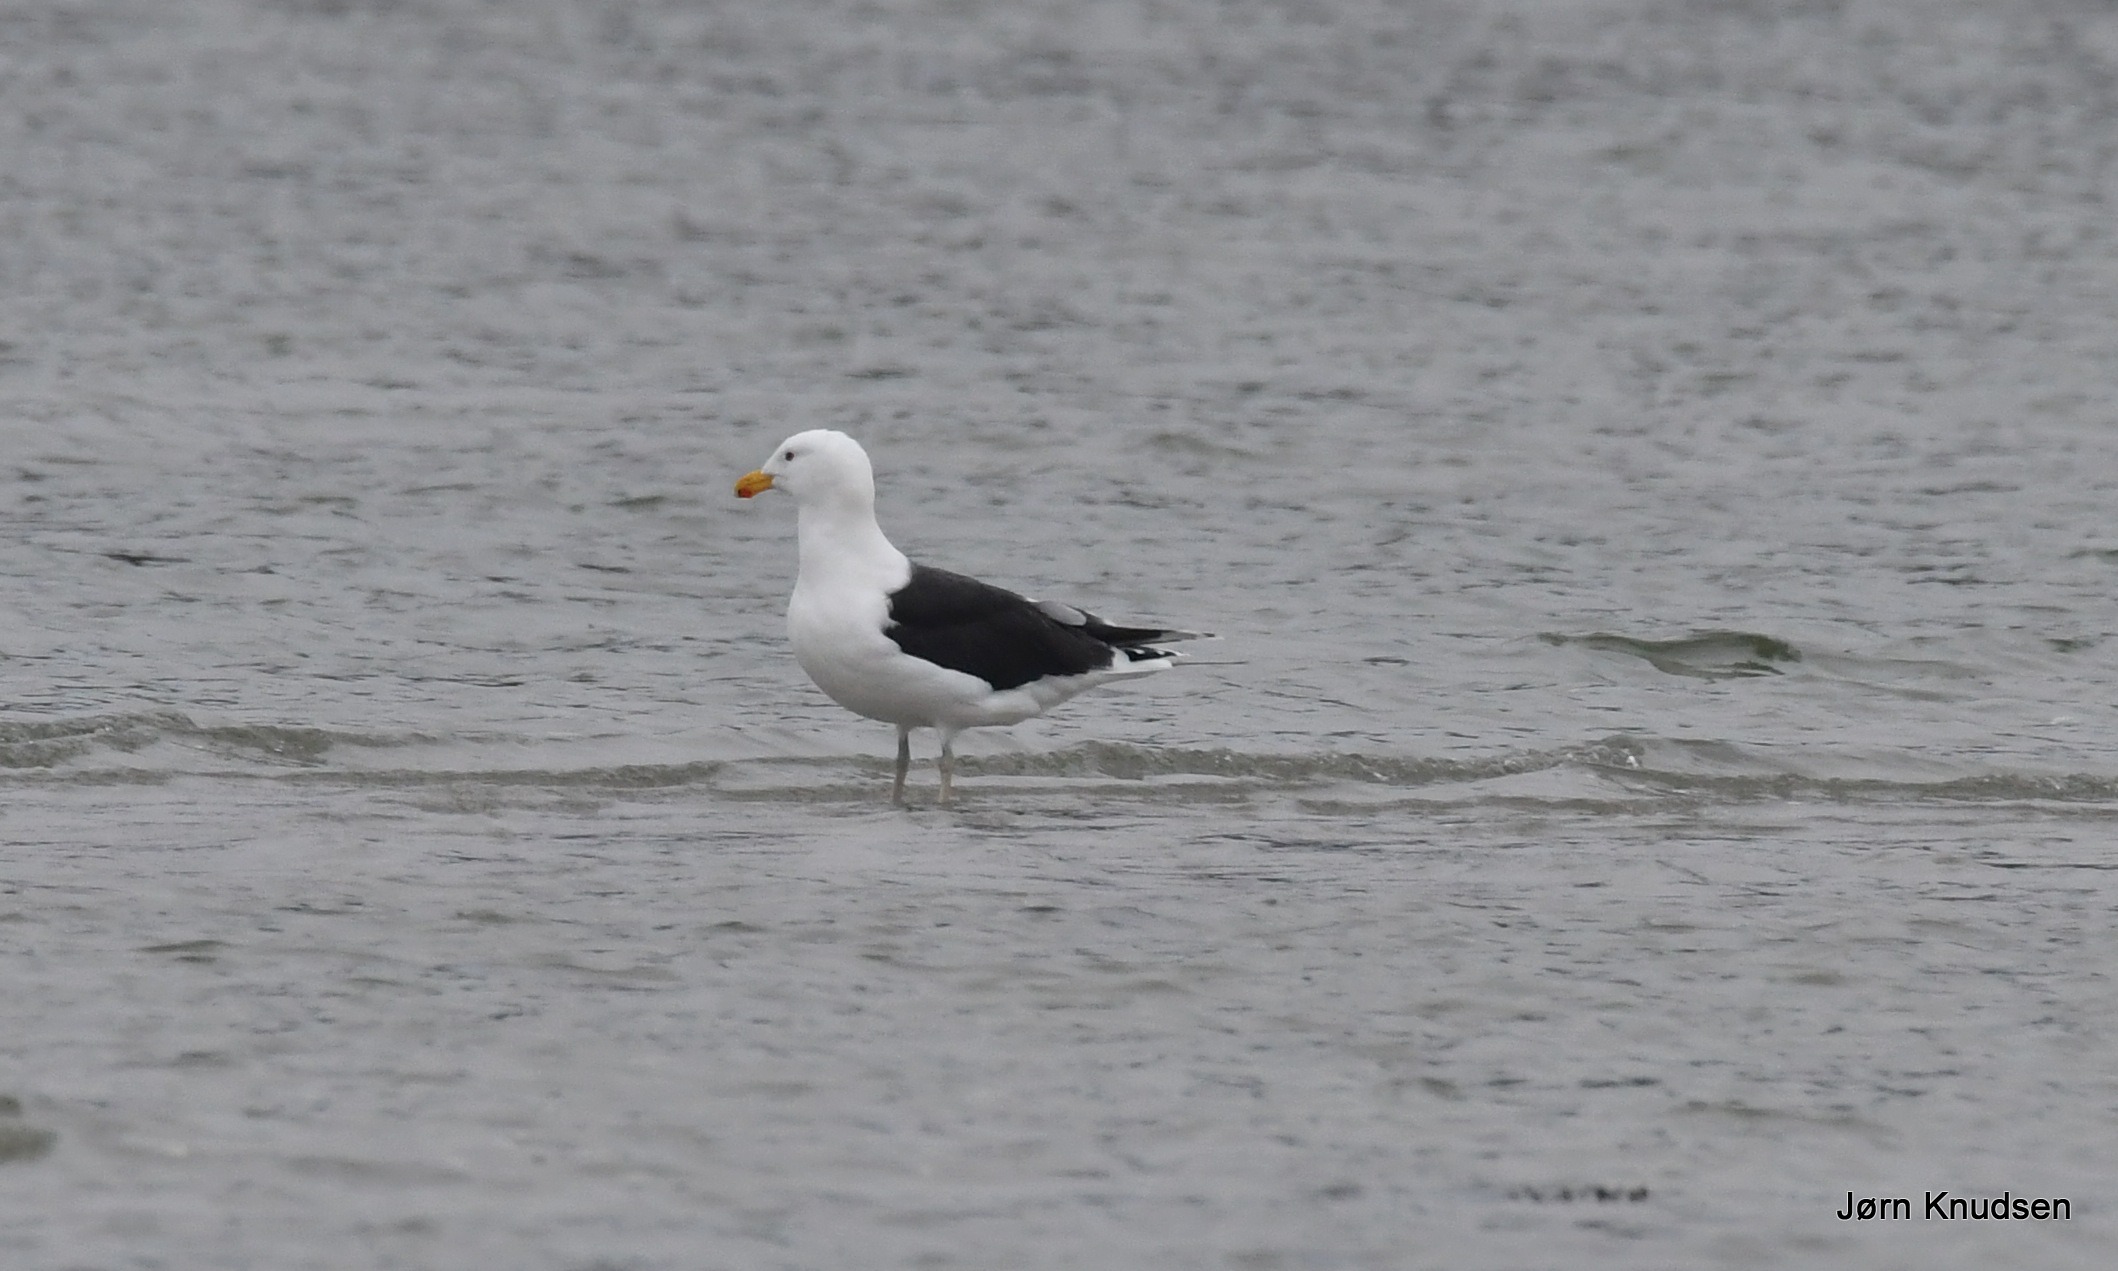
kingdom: Animalia
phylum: Chordata
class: Aves
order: Charadriiformes
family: Laridae
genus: Larus
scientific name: Larus marinus
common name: Svartbag
